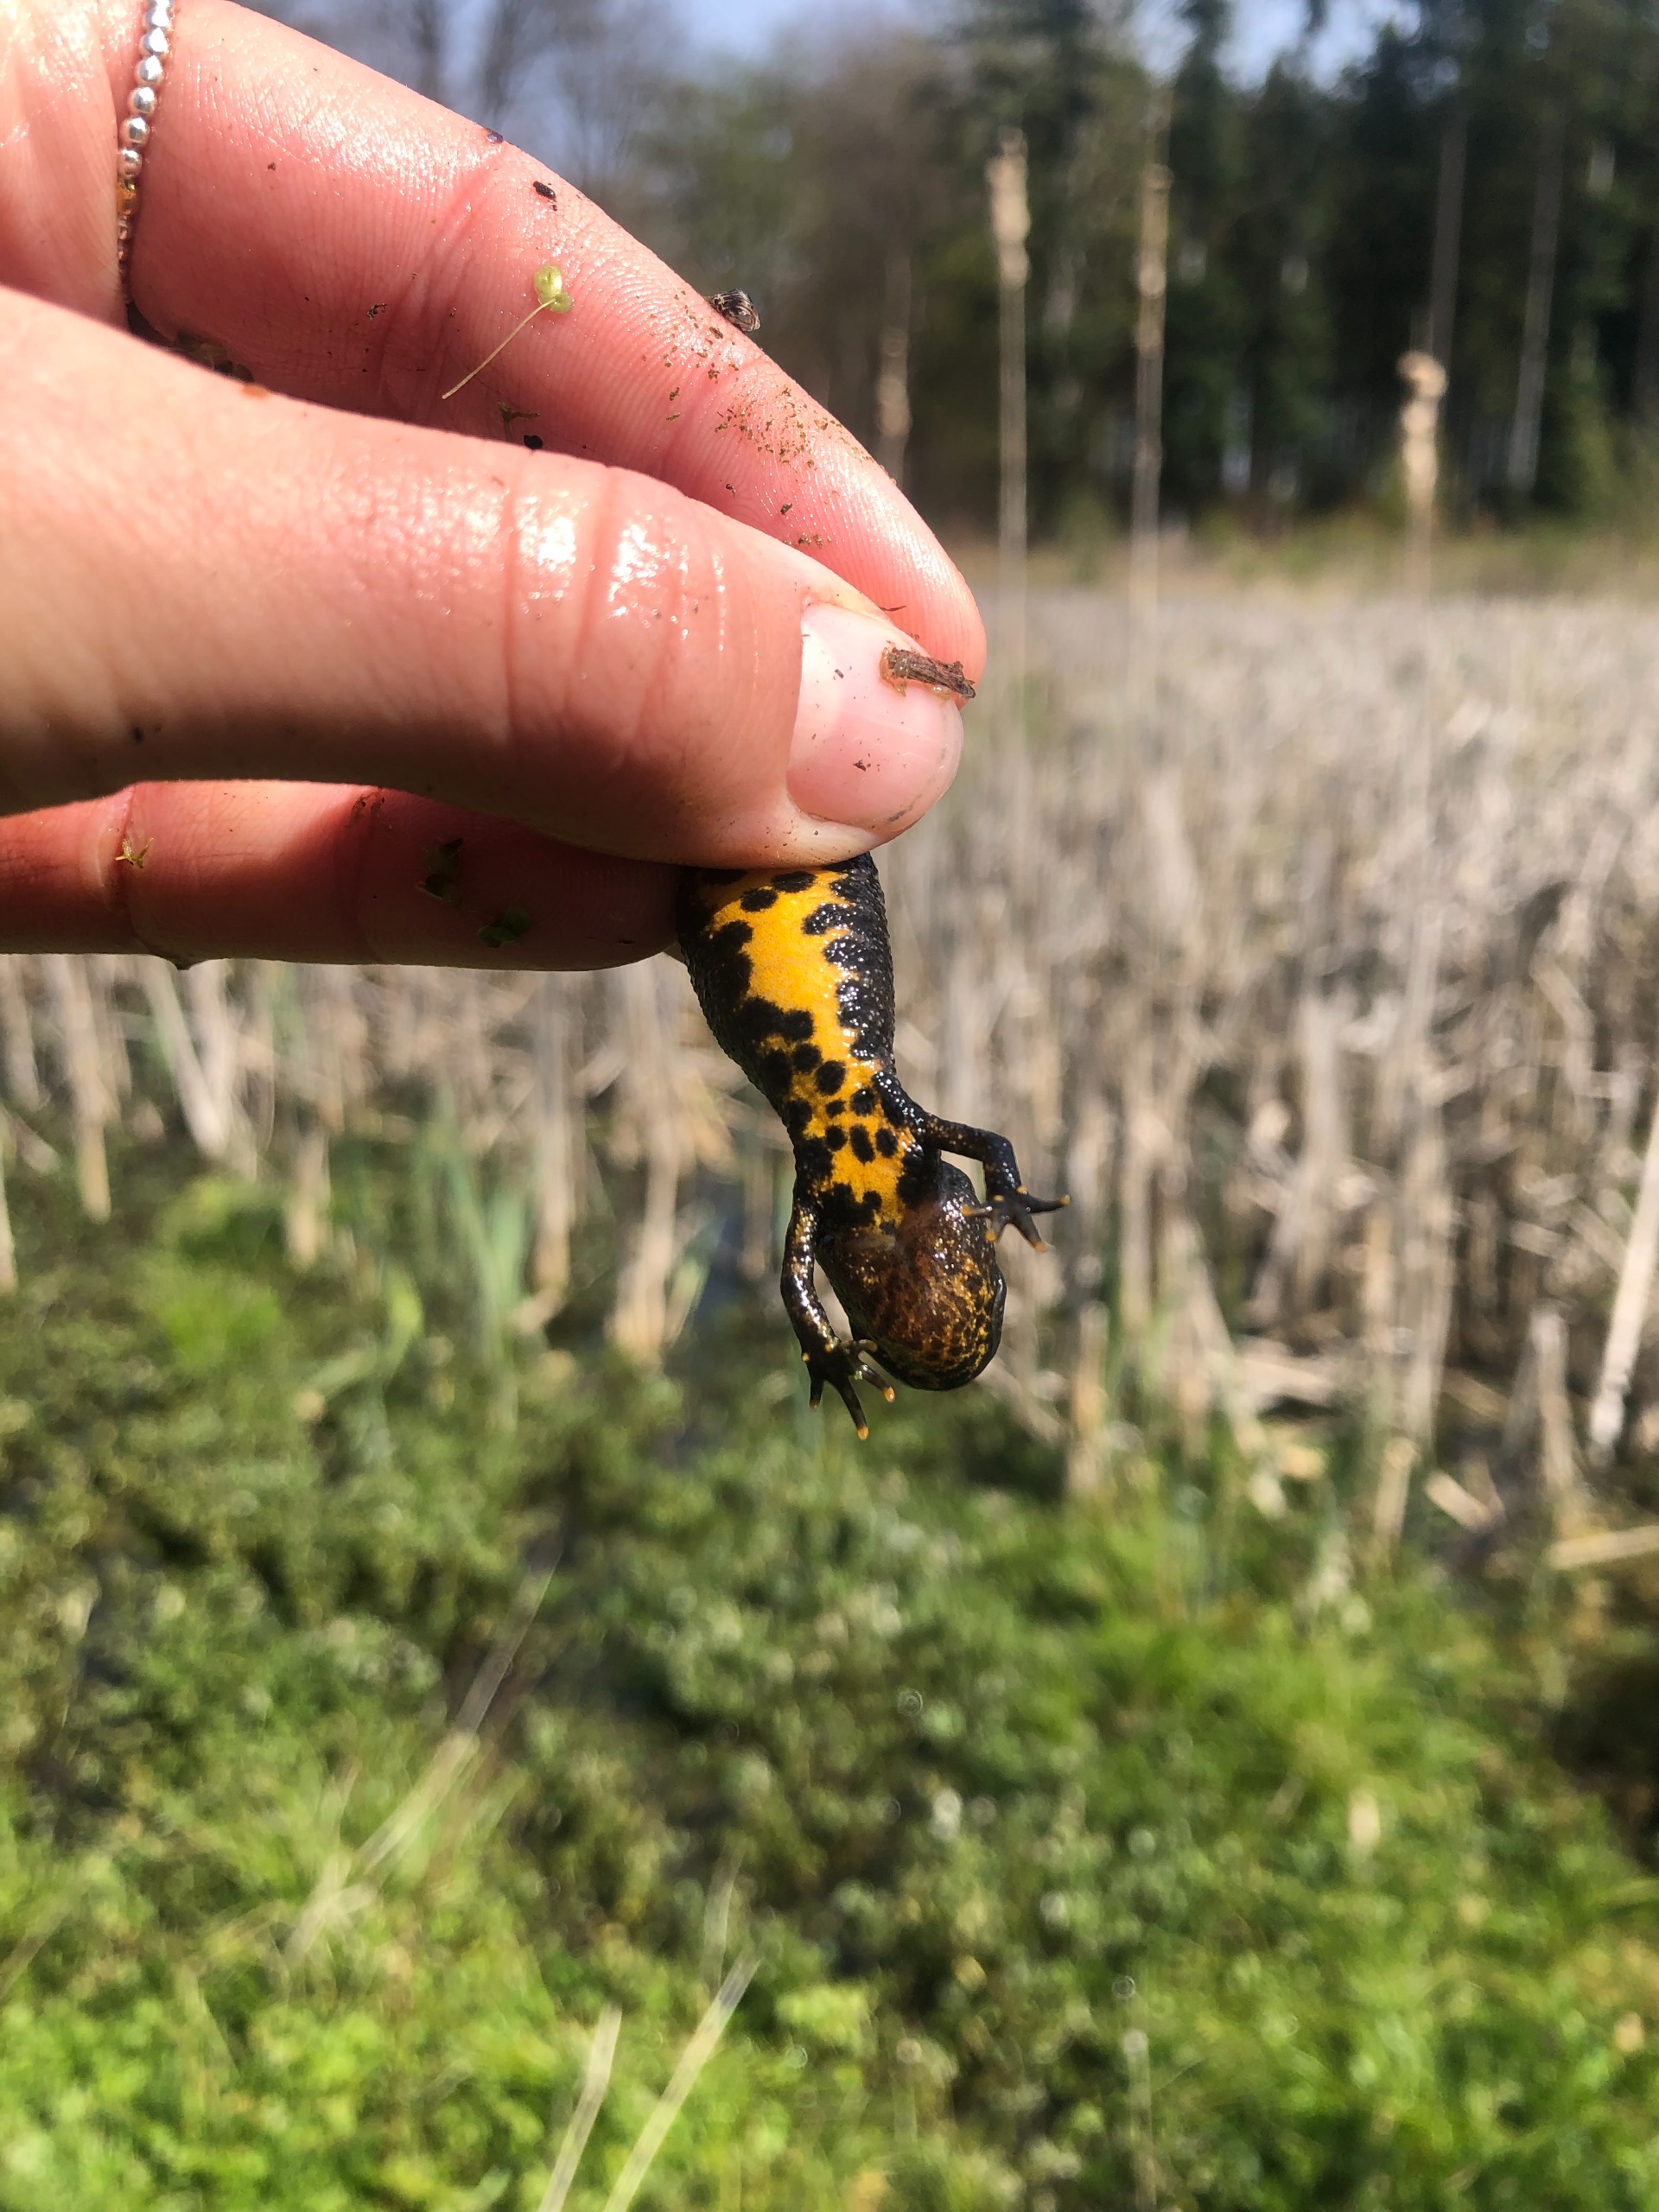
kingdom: Animalia
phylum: Chordata
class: Amphibia
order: Caudata
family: Salamandridae
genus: Triturus
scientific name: Triturus cristatus
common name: Stor vandsalamander
